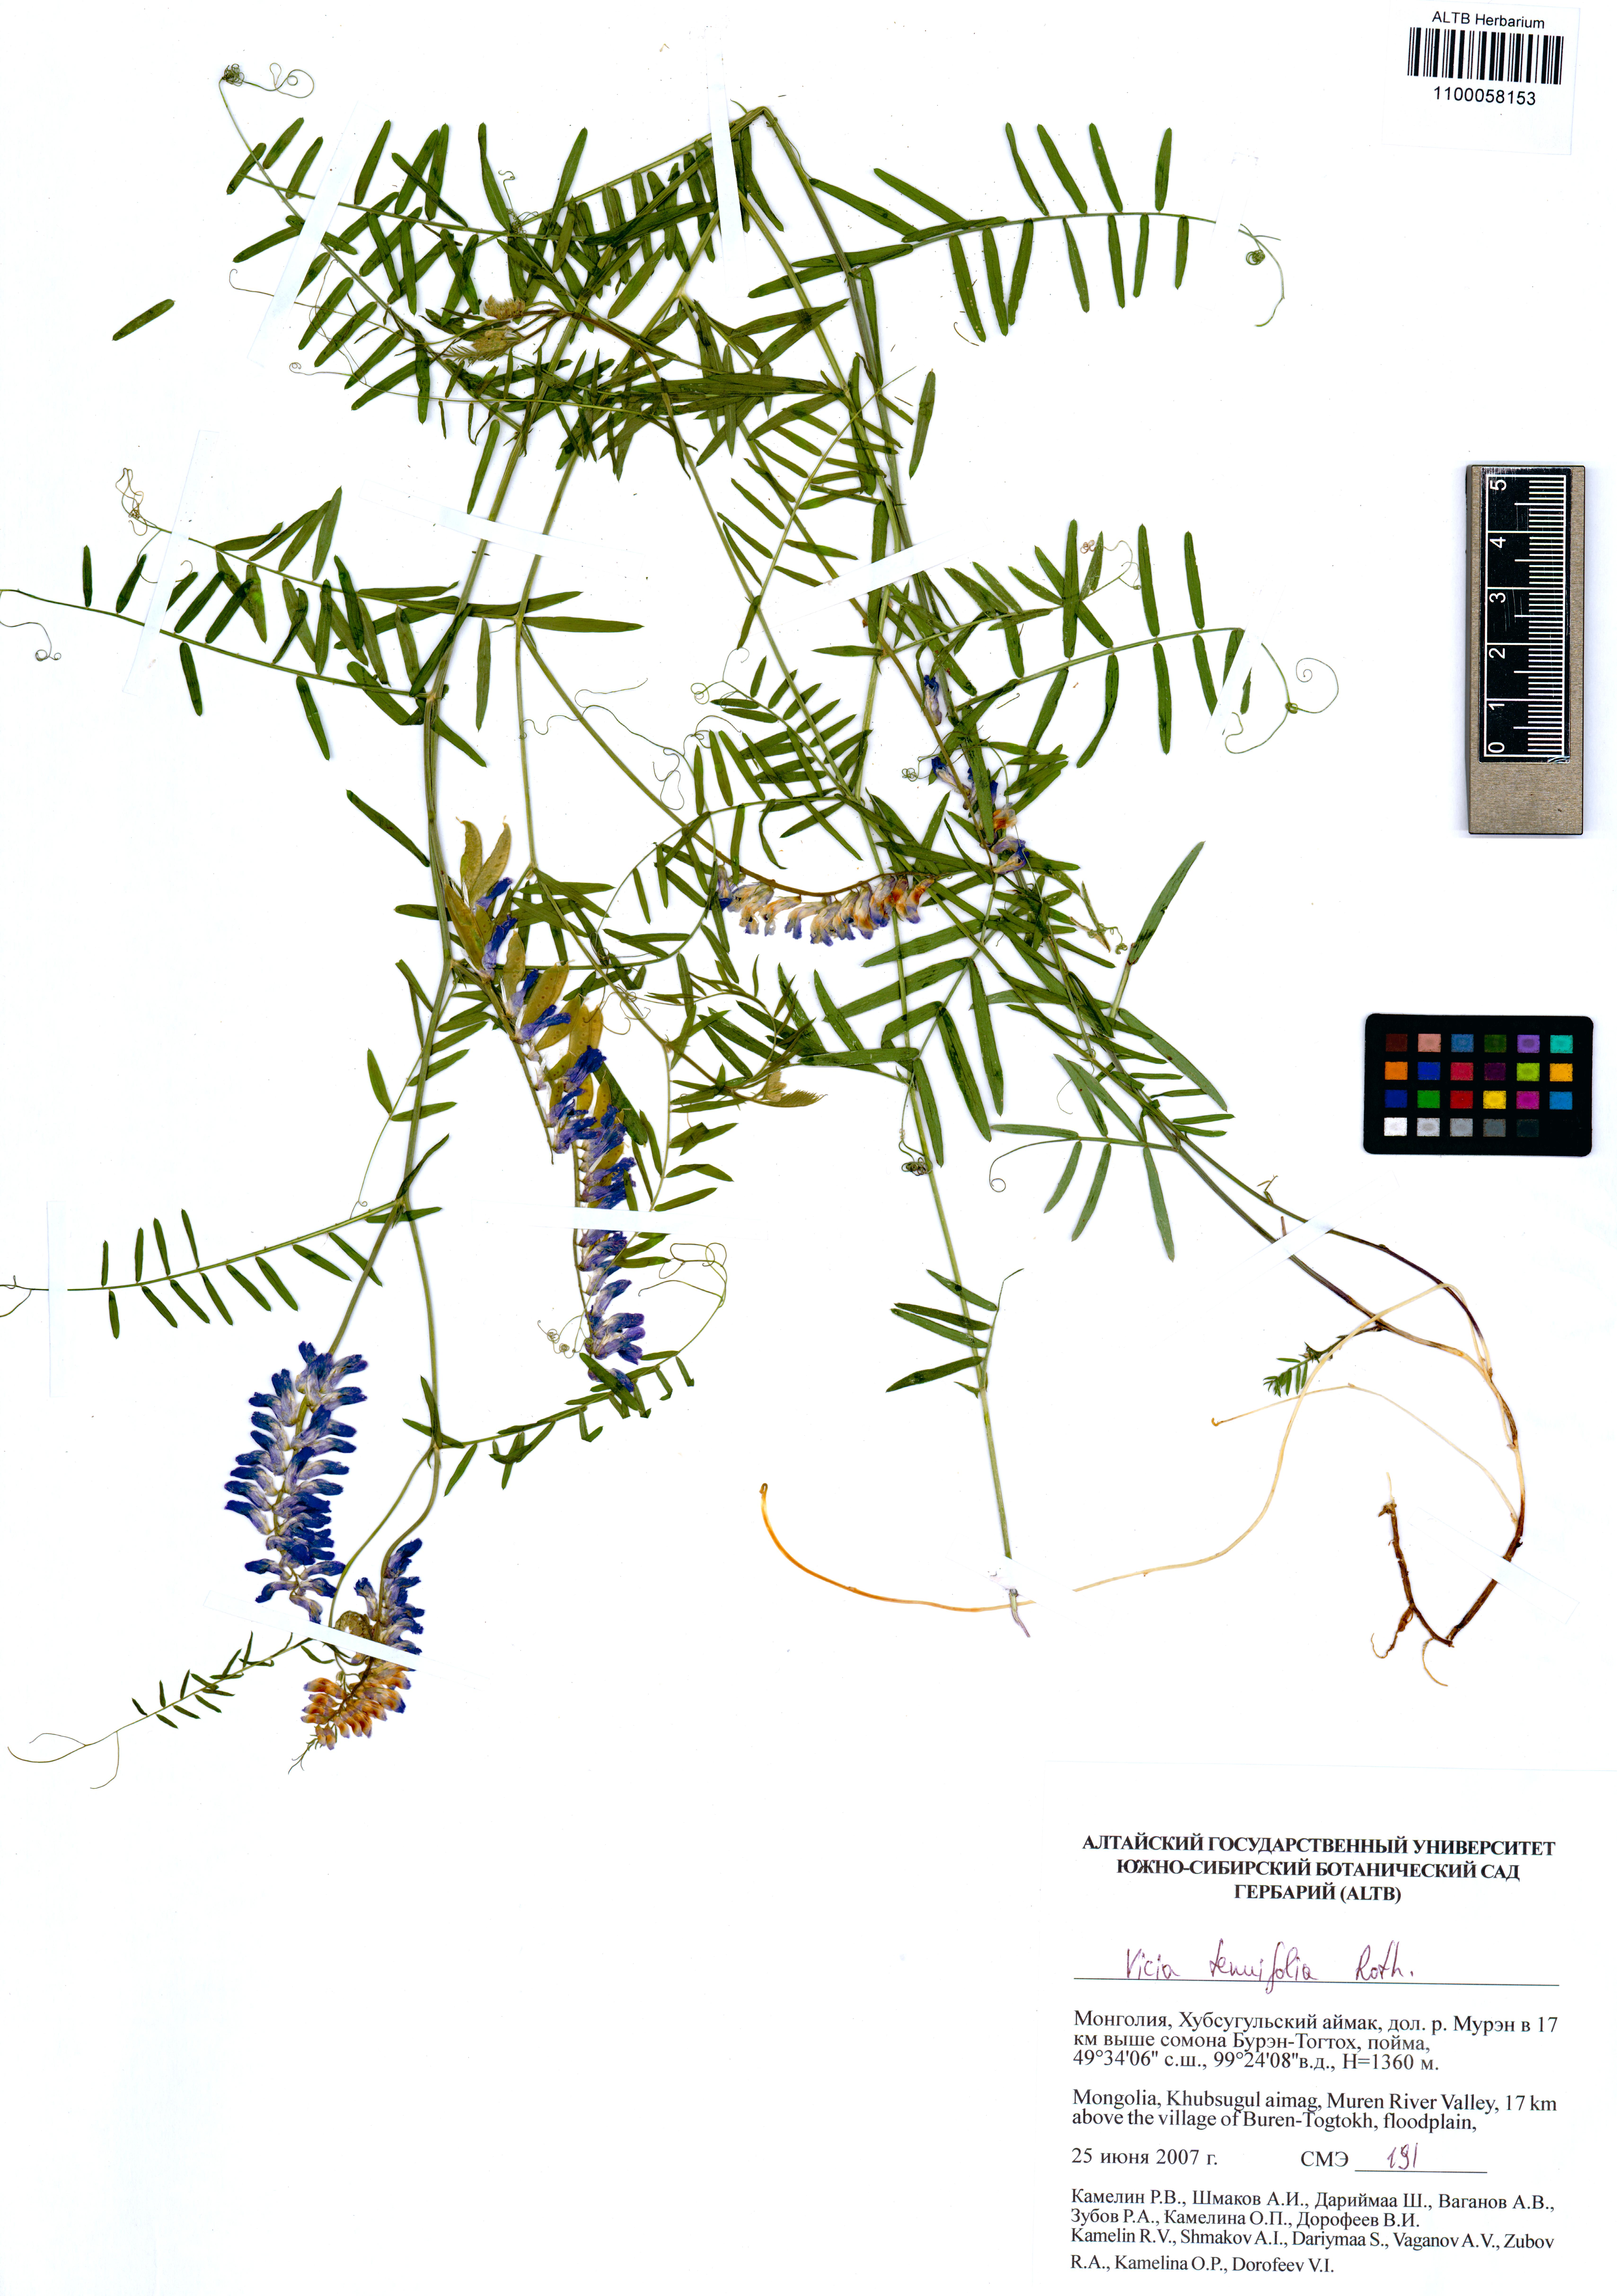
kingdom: Plantae
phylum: Tracheophyta
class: Magnoliopsida
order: Fabales
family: Fabaceae
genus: Vicia
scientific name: Vicia tenuifolia
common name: Fine-leaved vetch
